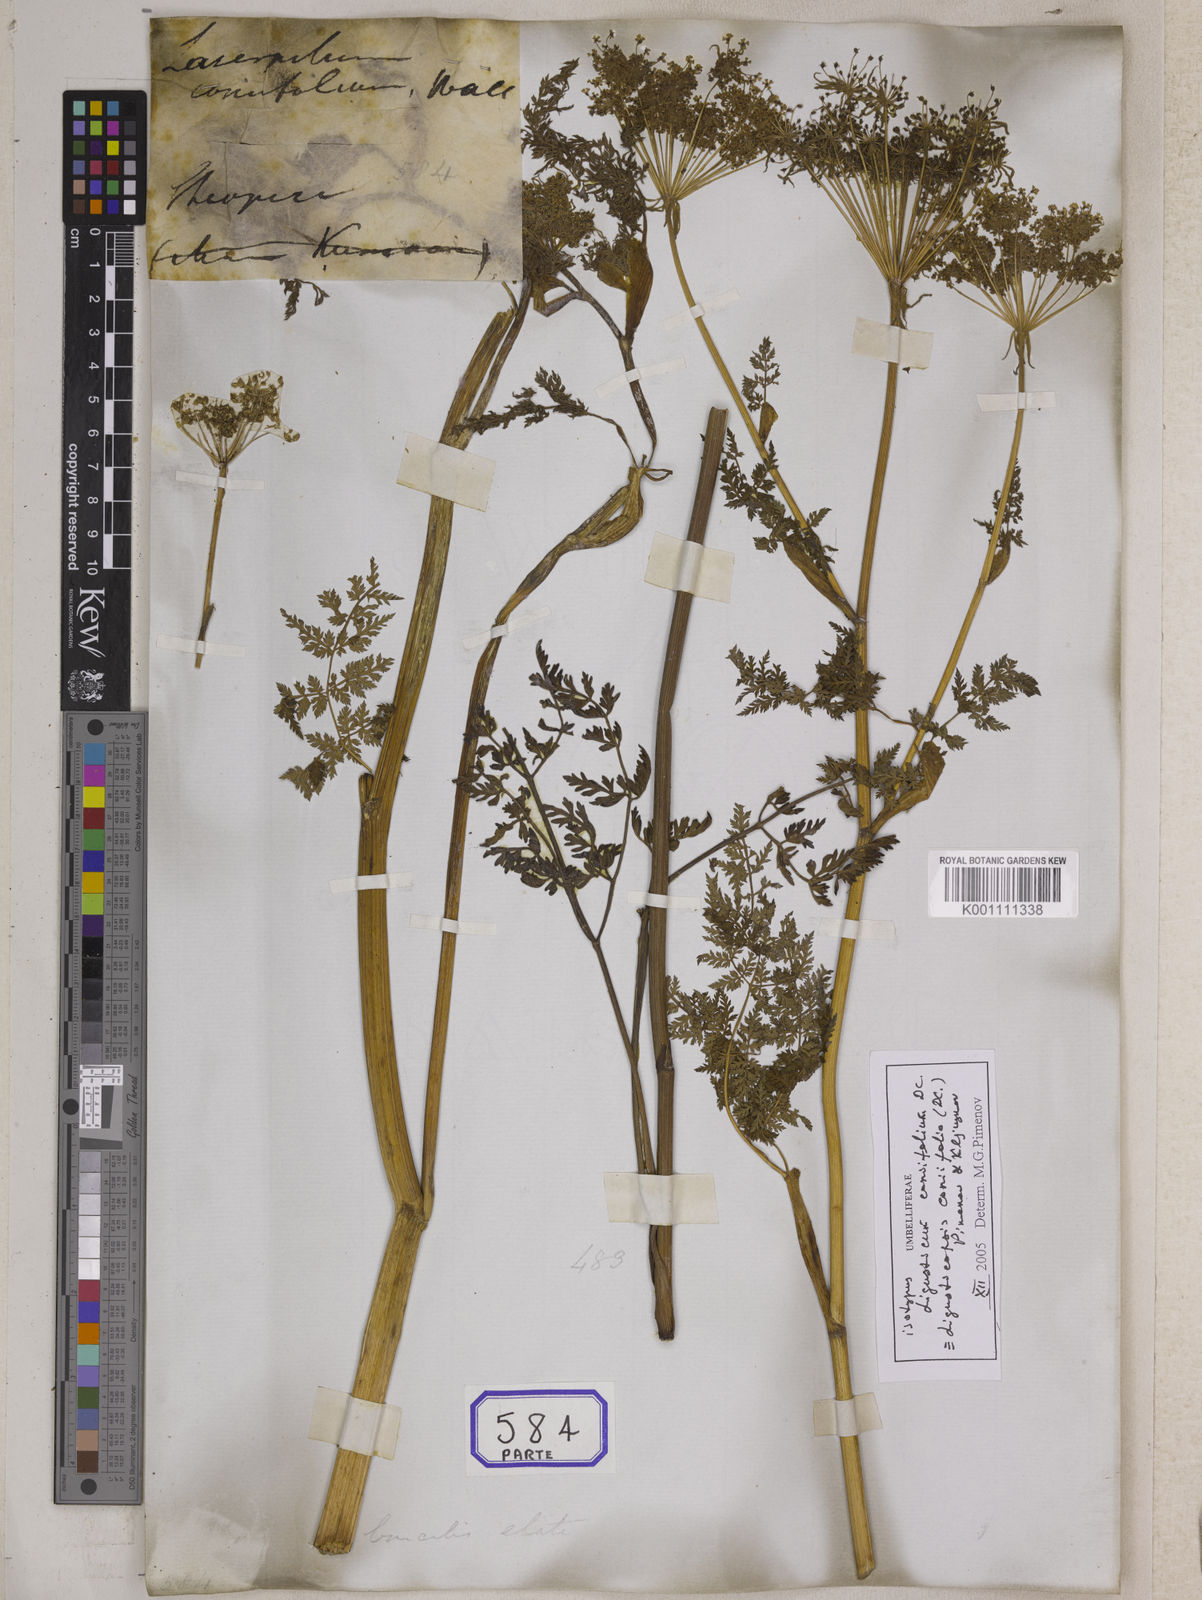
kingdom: Plantae
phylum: Tracheophyta
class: Magnoliopsida
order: Apiales
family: Apiaceae
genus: Ligusticopsis
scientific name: Ligusticopsis wallichiana
